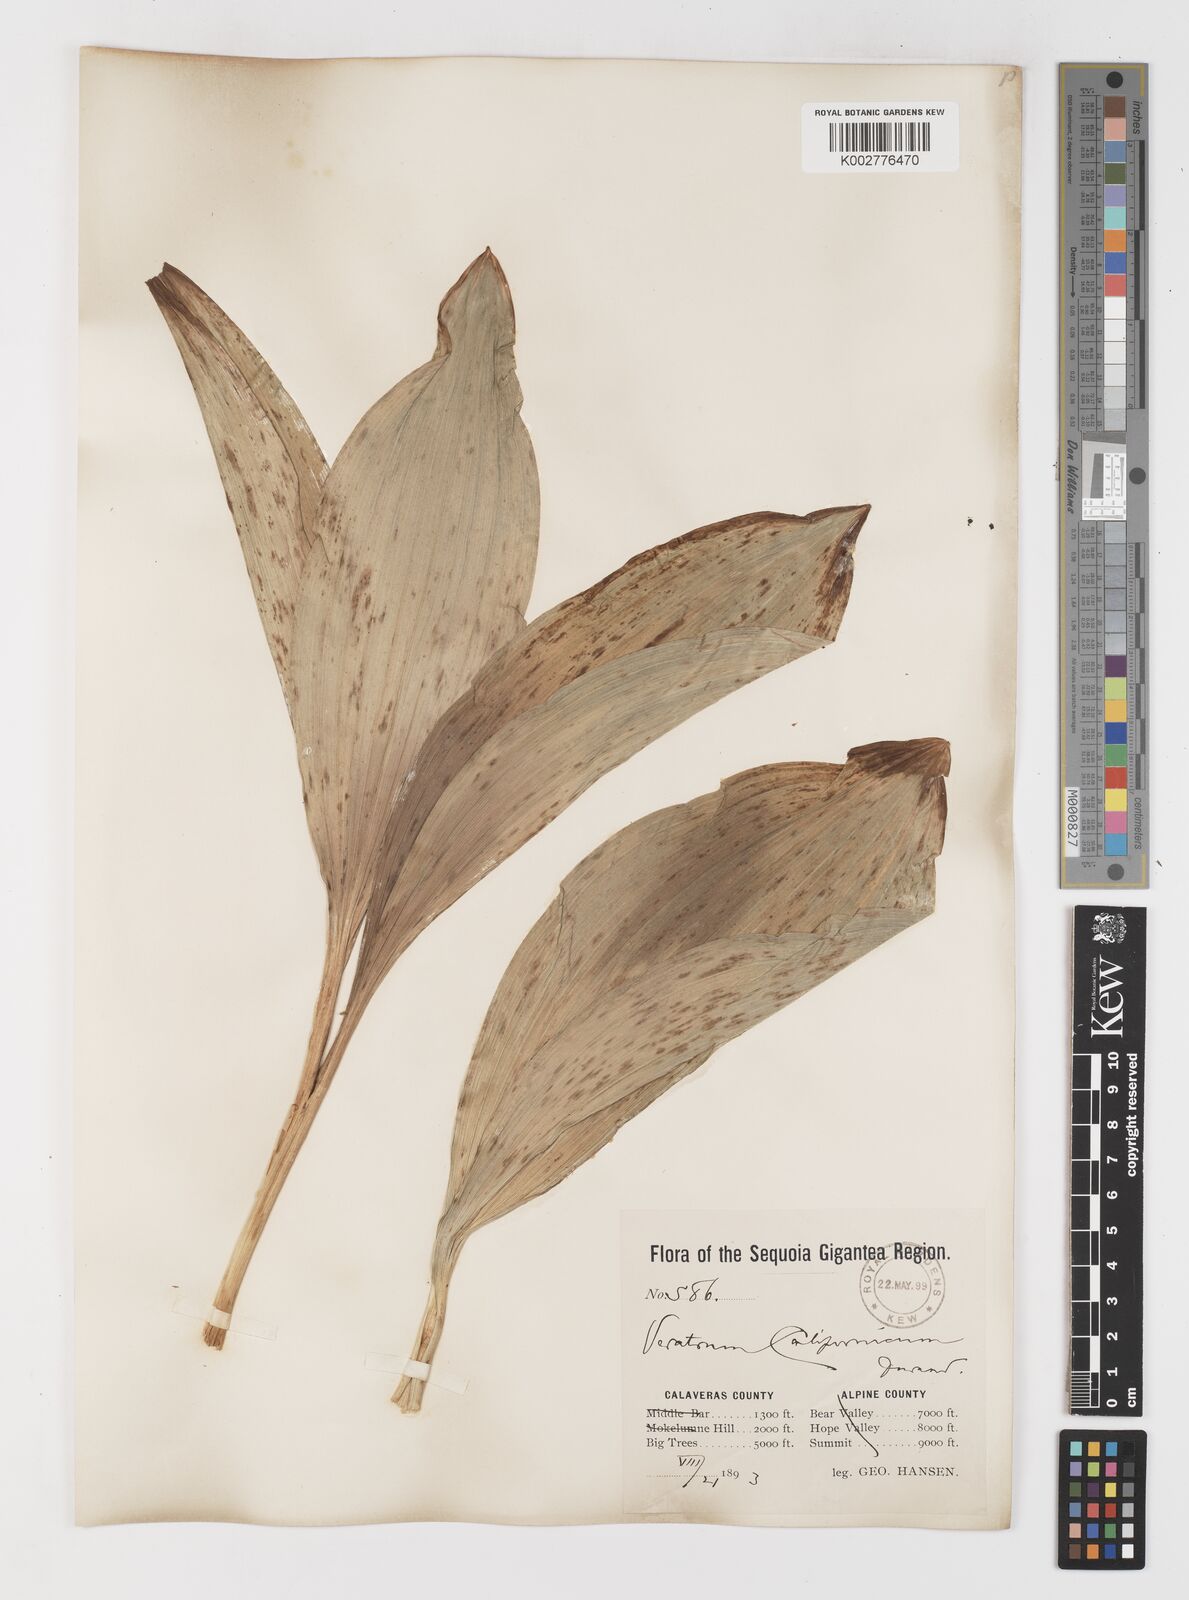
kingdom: Plantae
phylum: Tracheophyta
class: Liliopsida
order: Liliales
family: Melanthiaceae
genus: Veratrum
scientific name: Veratrum californicum
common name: California veratrum
